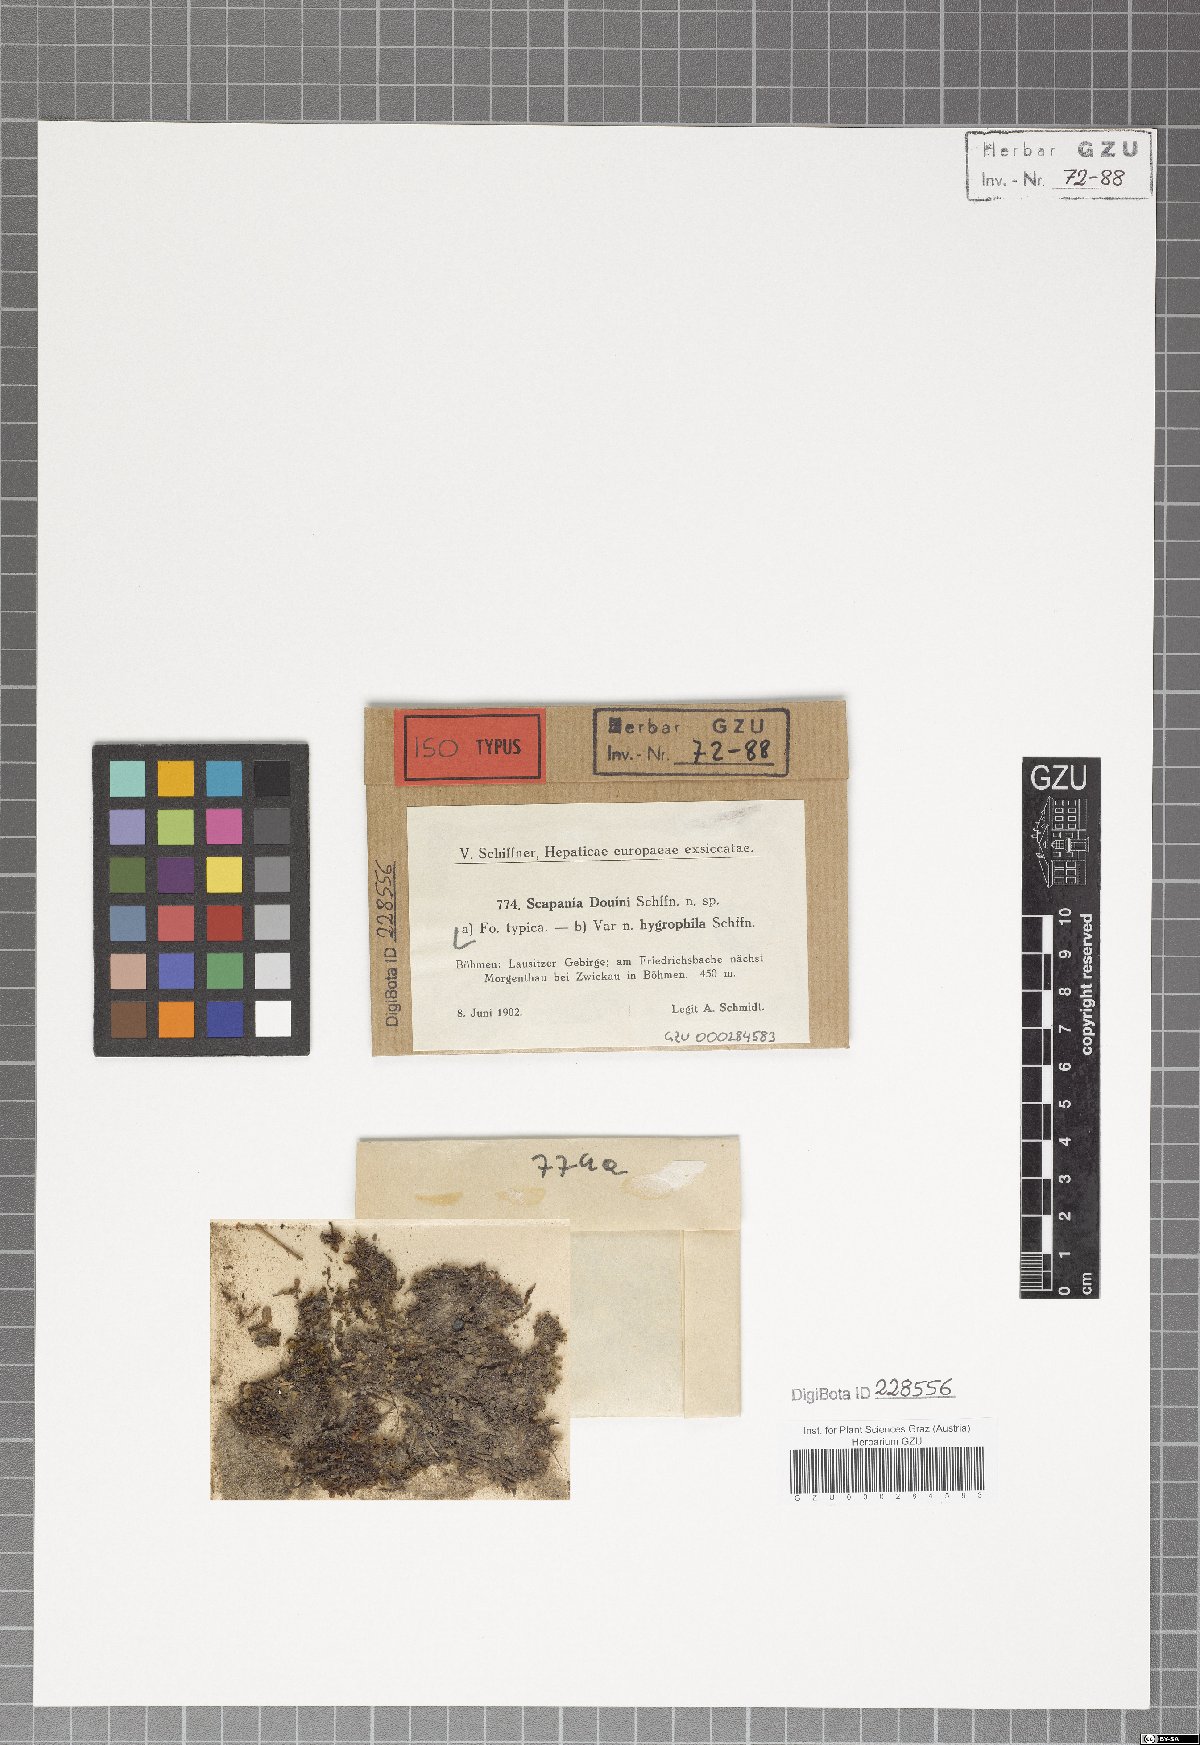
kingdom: Plantae
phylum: Marchantiophyta
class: Jungermanniopsida
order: Jungermanniales
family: Scapaniaceae
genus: Scapania
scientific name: Scapania undulata
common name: Water earwort
